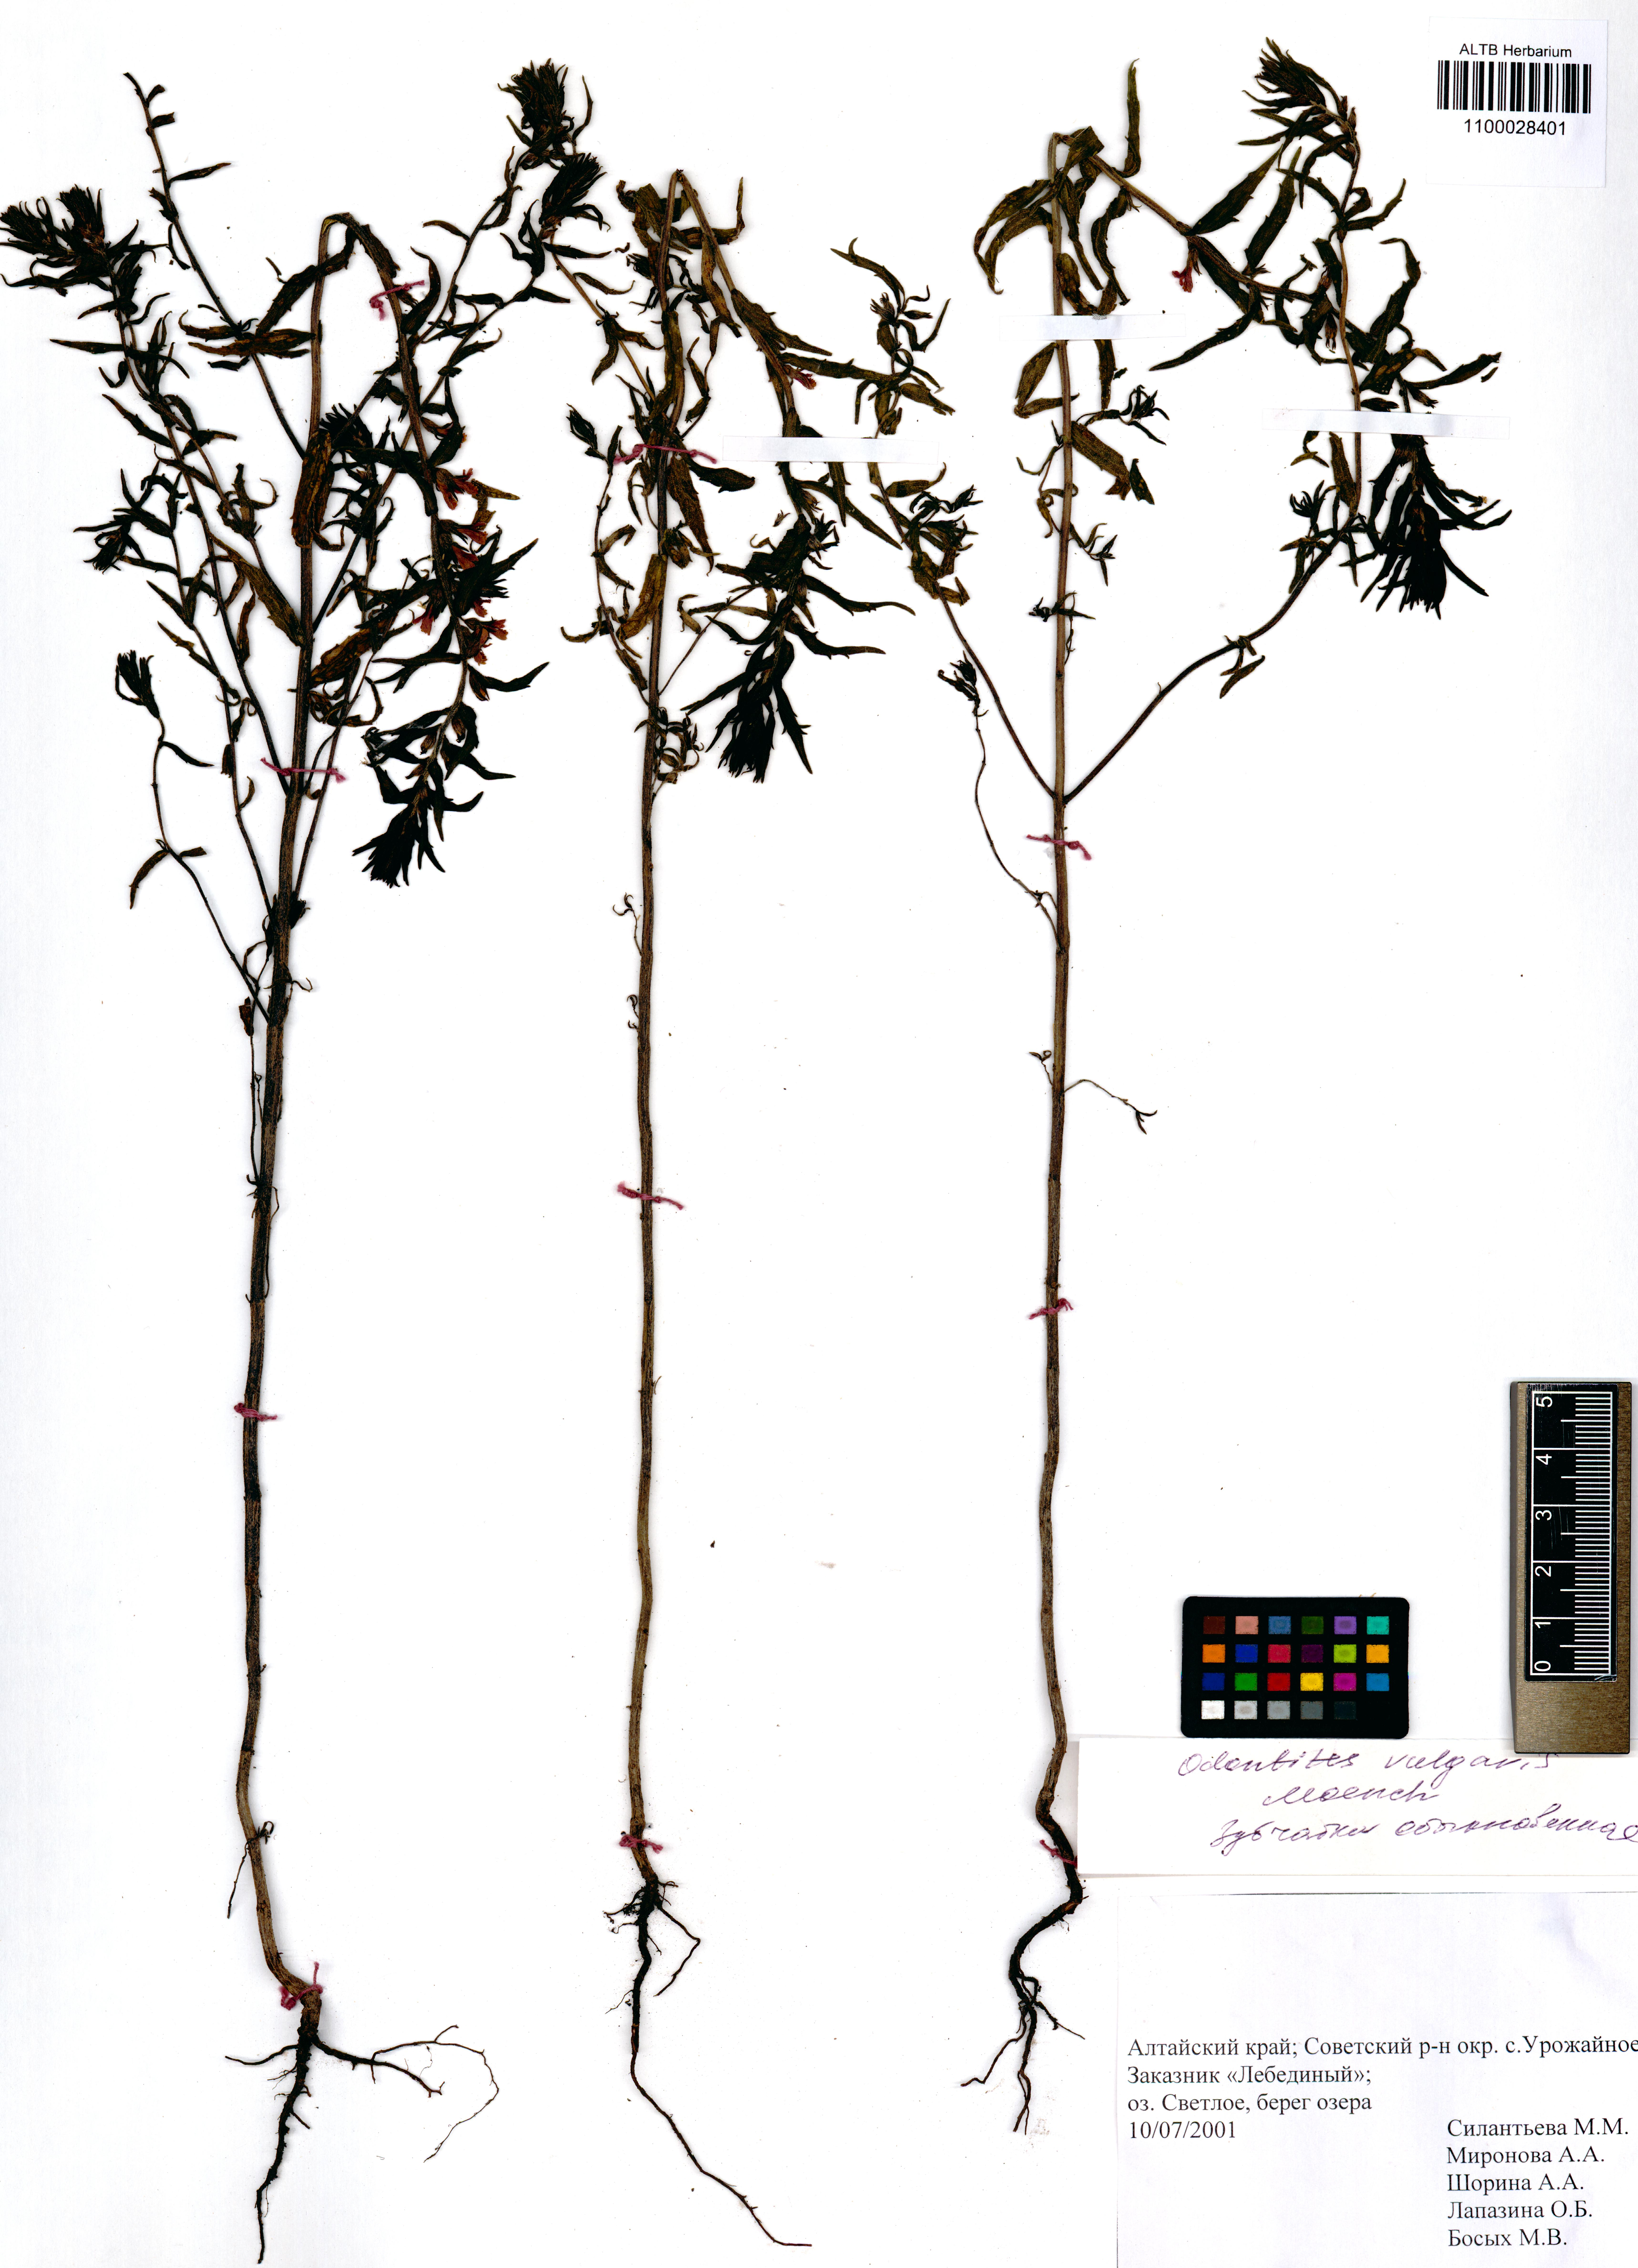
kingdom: Plantae
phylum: Tracheophyta
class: Magnoliopsida
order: Lamiales
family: Orobanchaceae
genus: Odontites
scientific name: Odontites vulgaris
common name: Broomrape
